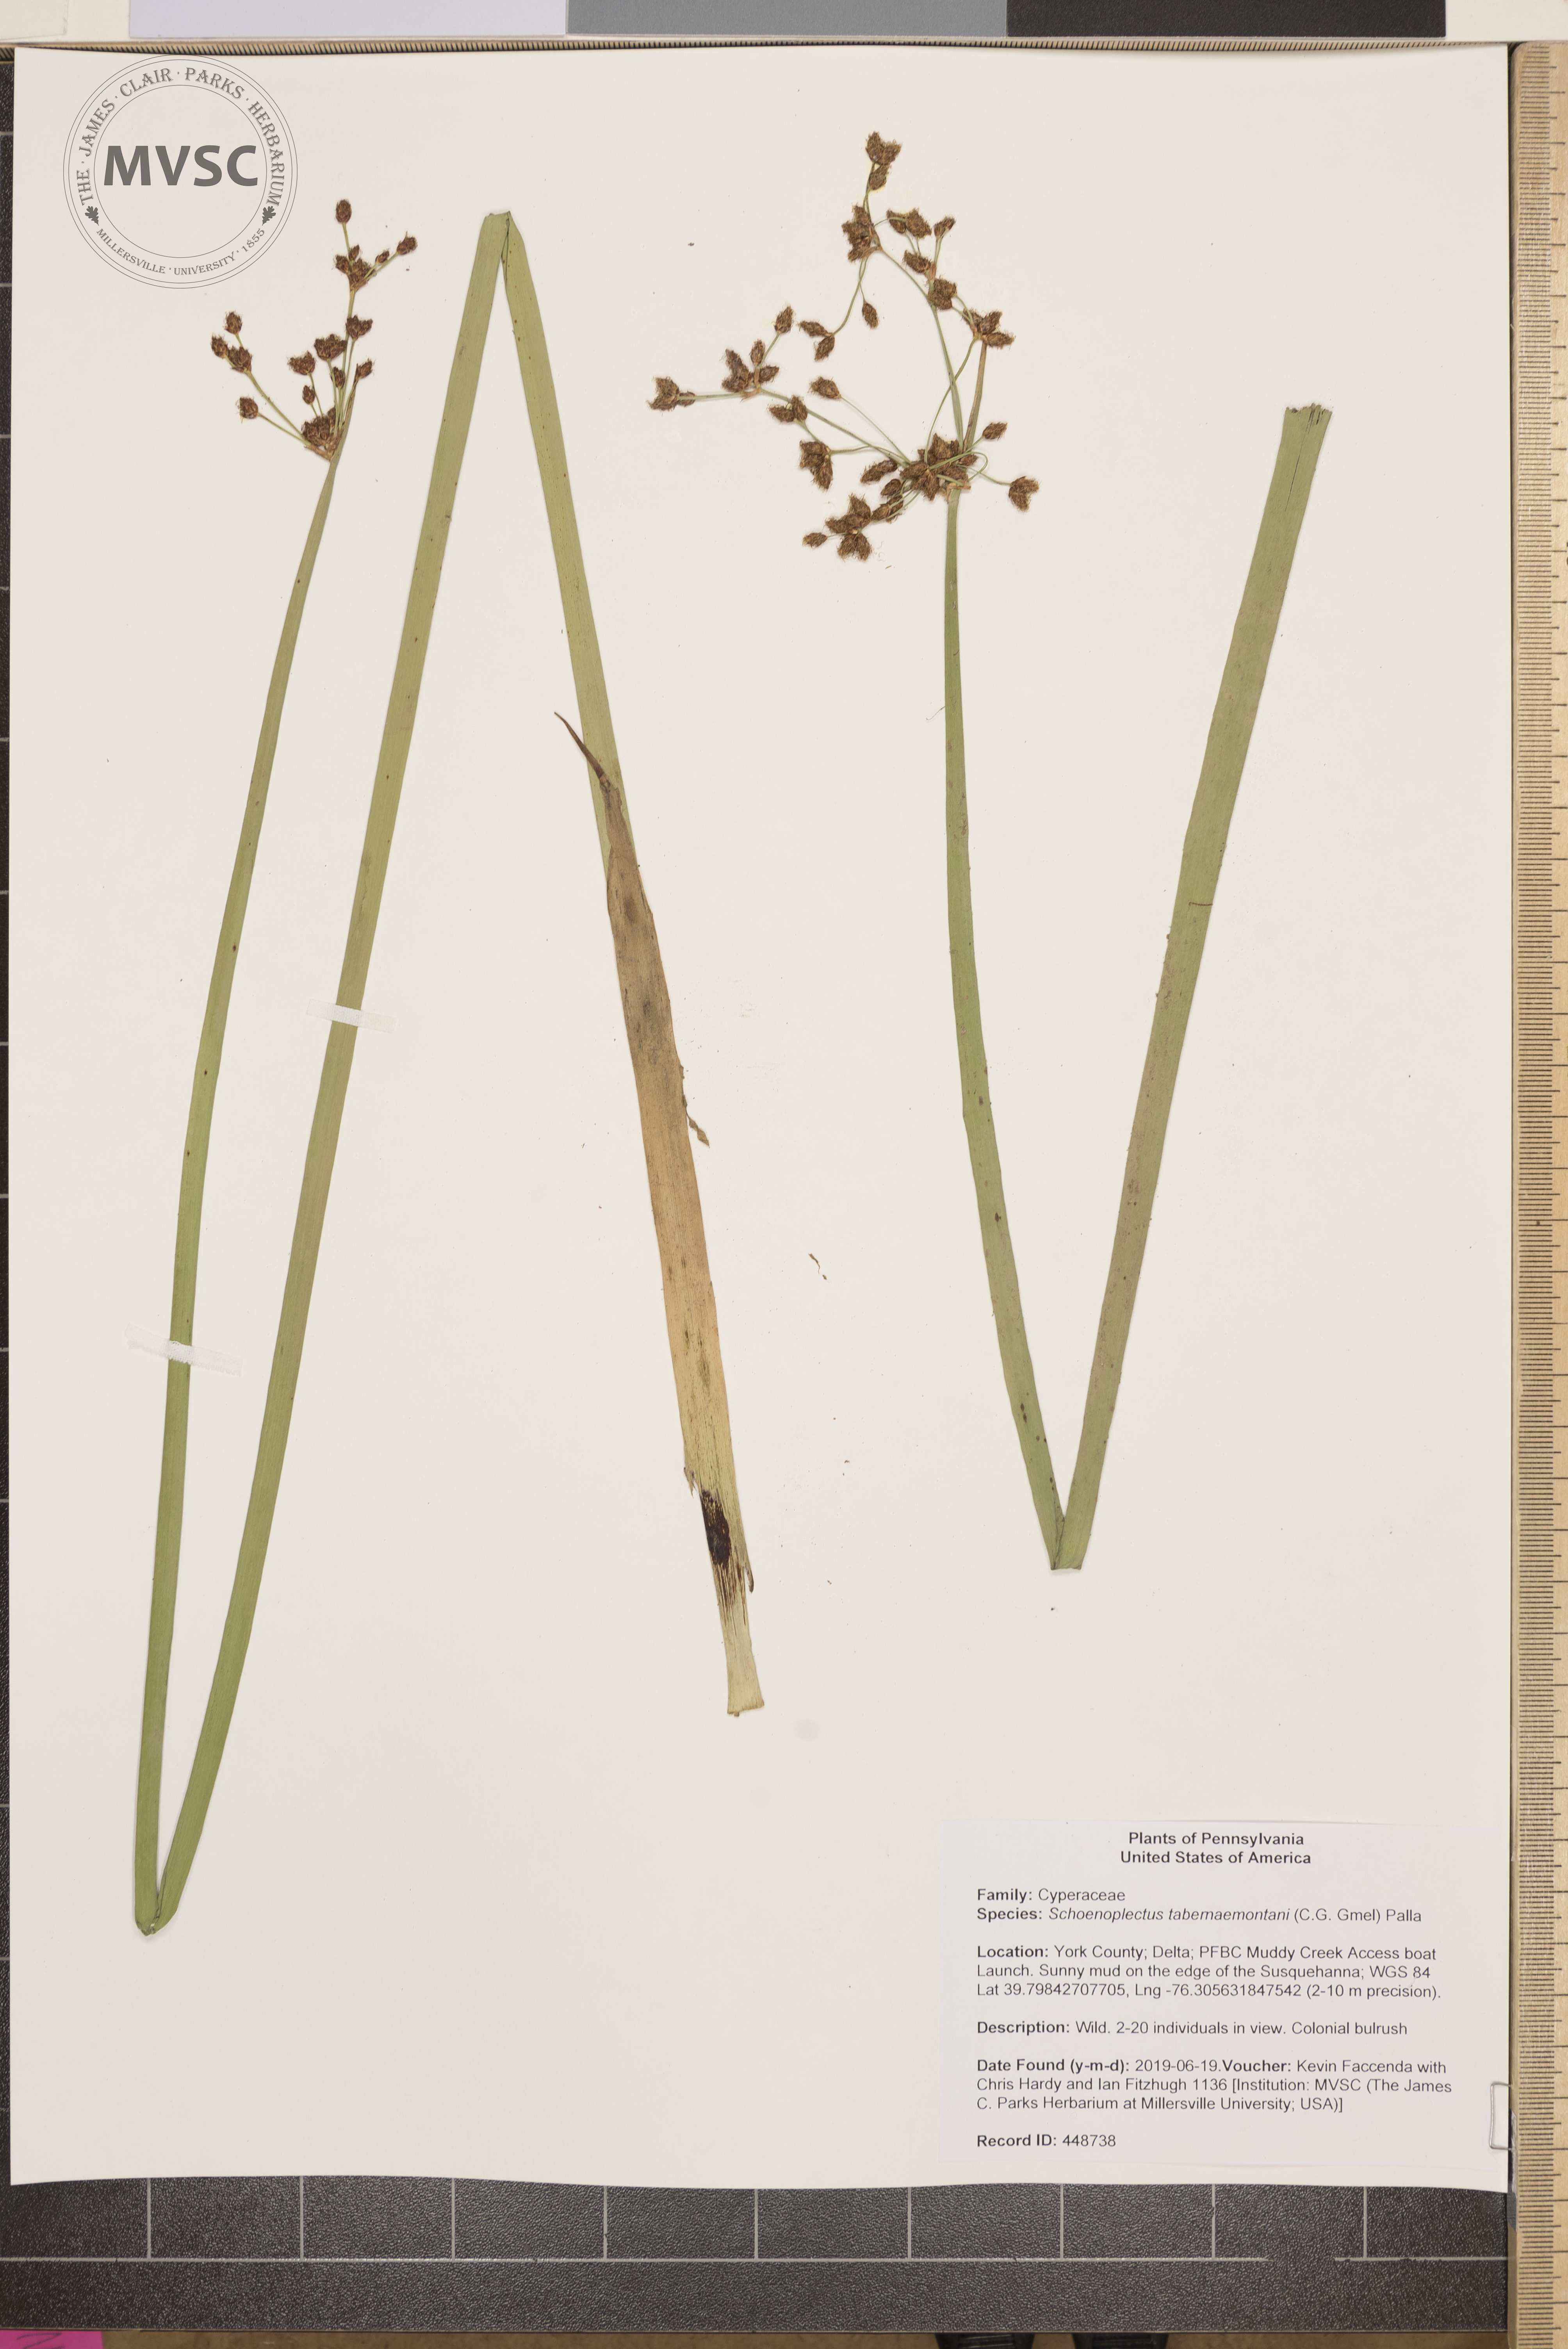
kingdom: Plantae
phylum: Tracheophyta
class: Liliopsida
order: Poales
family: Cyperaceae
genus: Schoenoplectus
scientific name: Schoenoplectus tabernaemontani
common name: Grey club-rush
